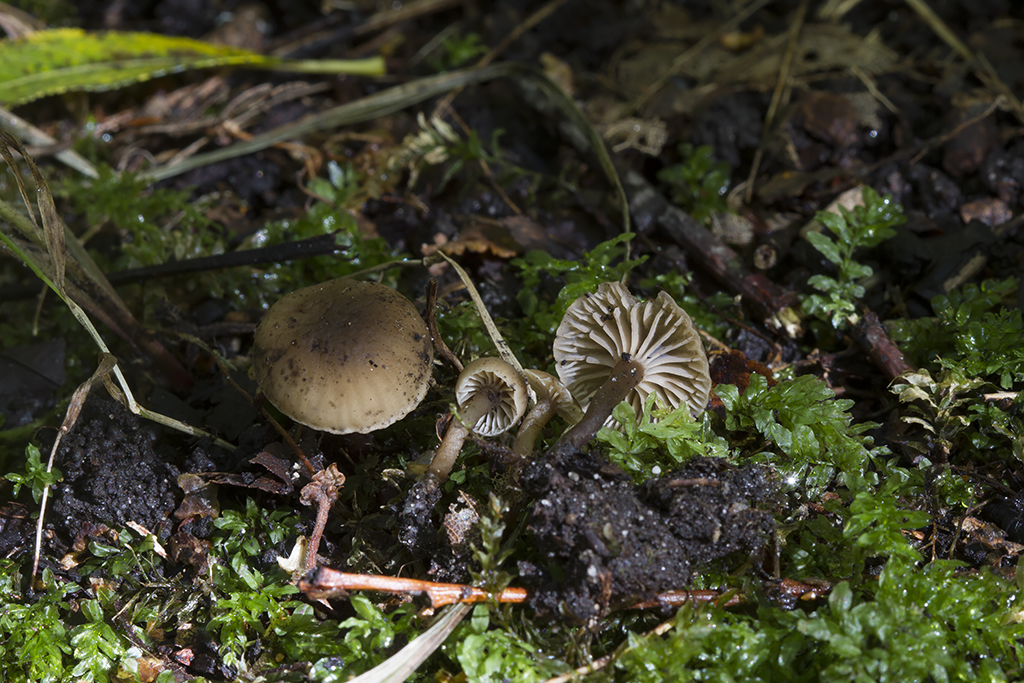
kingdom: Fungi
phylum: Basidiomycota
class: Agaricomycetes
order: Agaricales
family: Clavariaceae
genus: Hodophilus
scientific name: Hodophilus foetens
